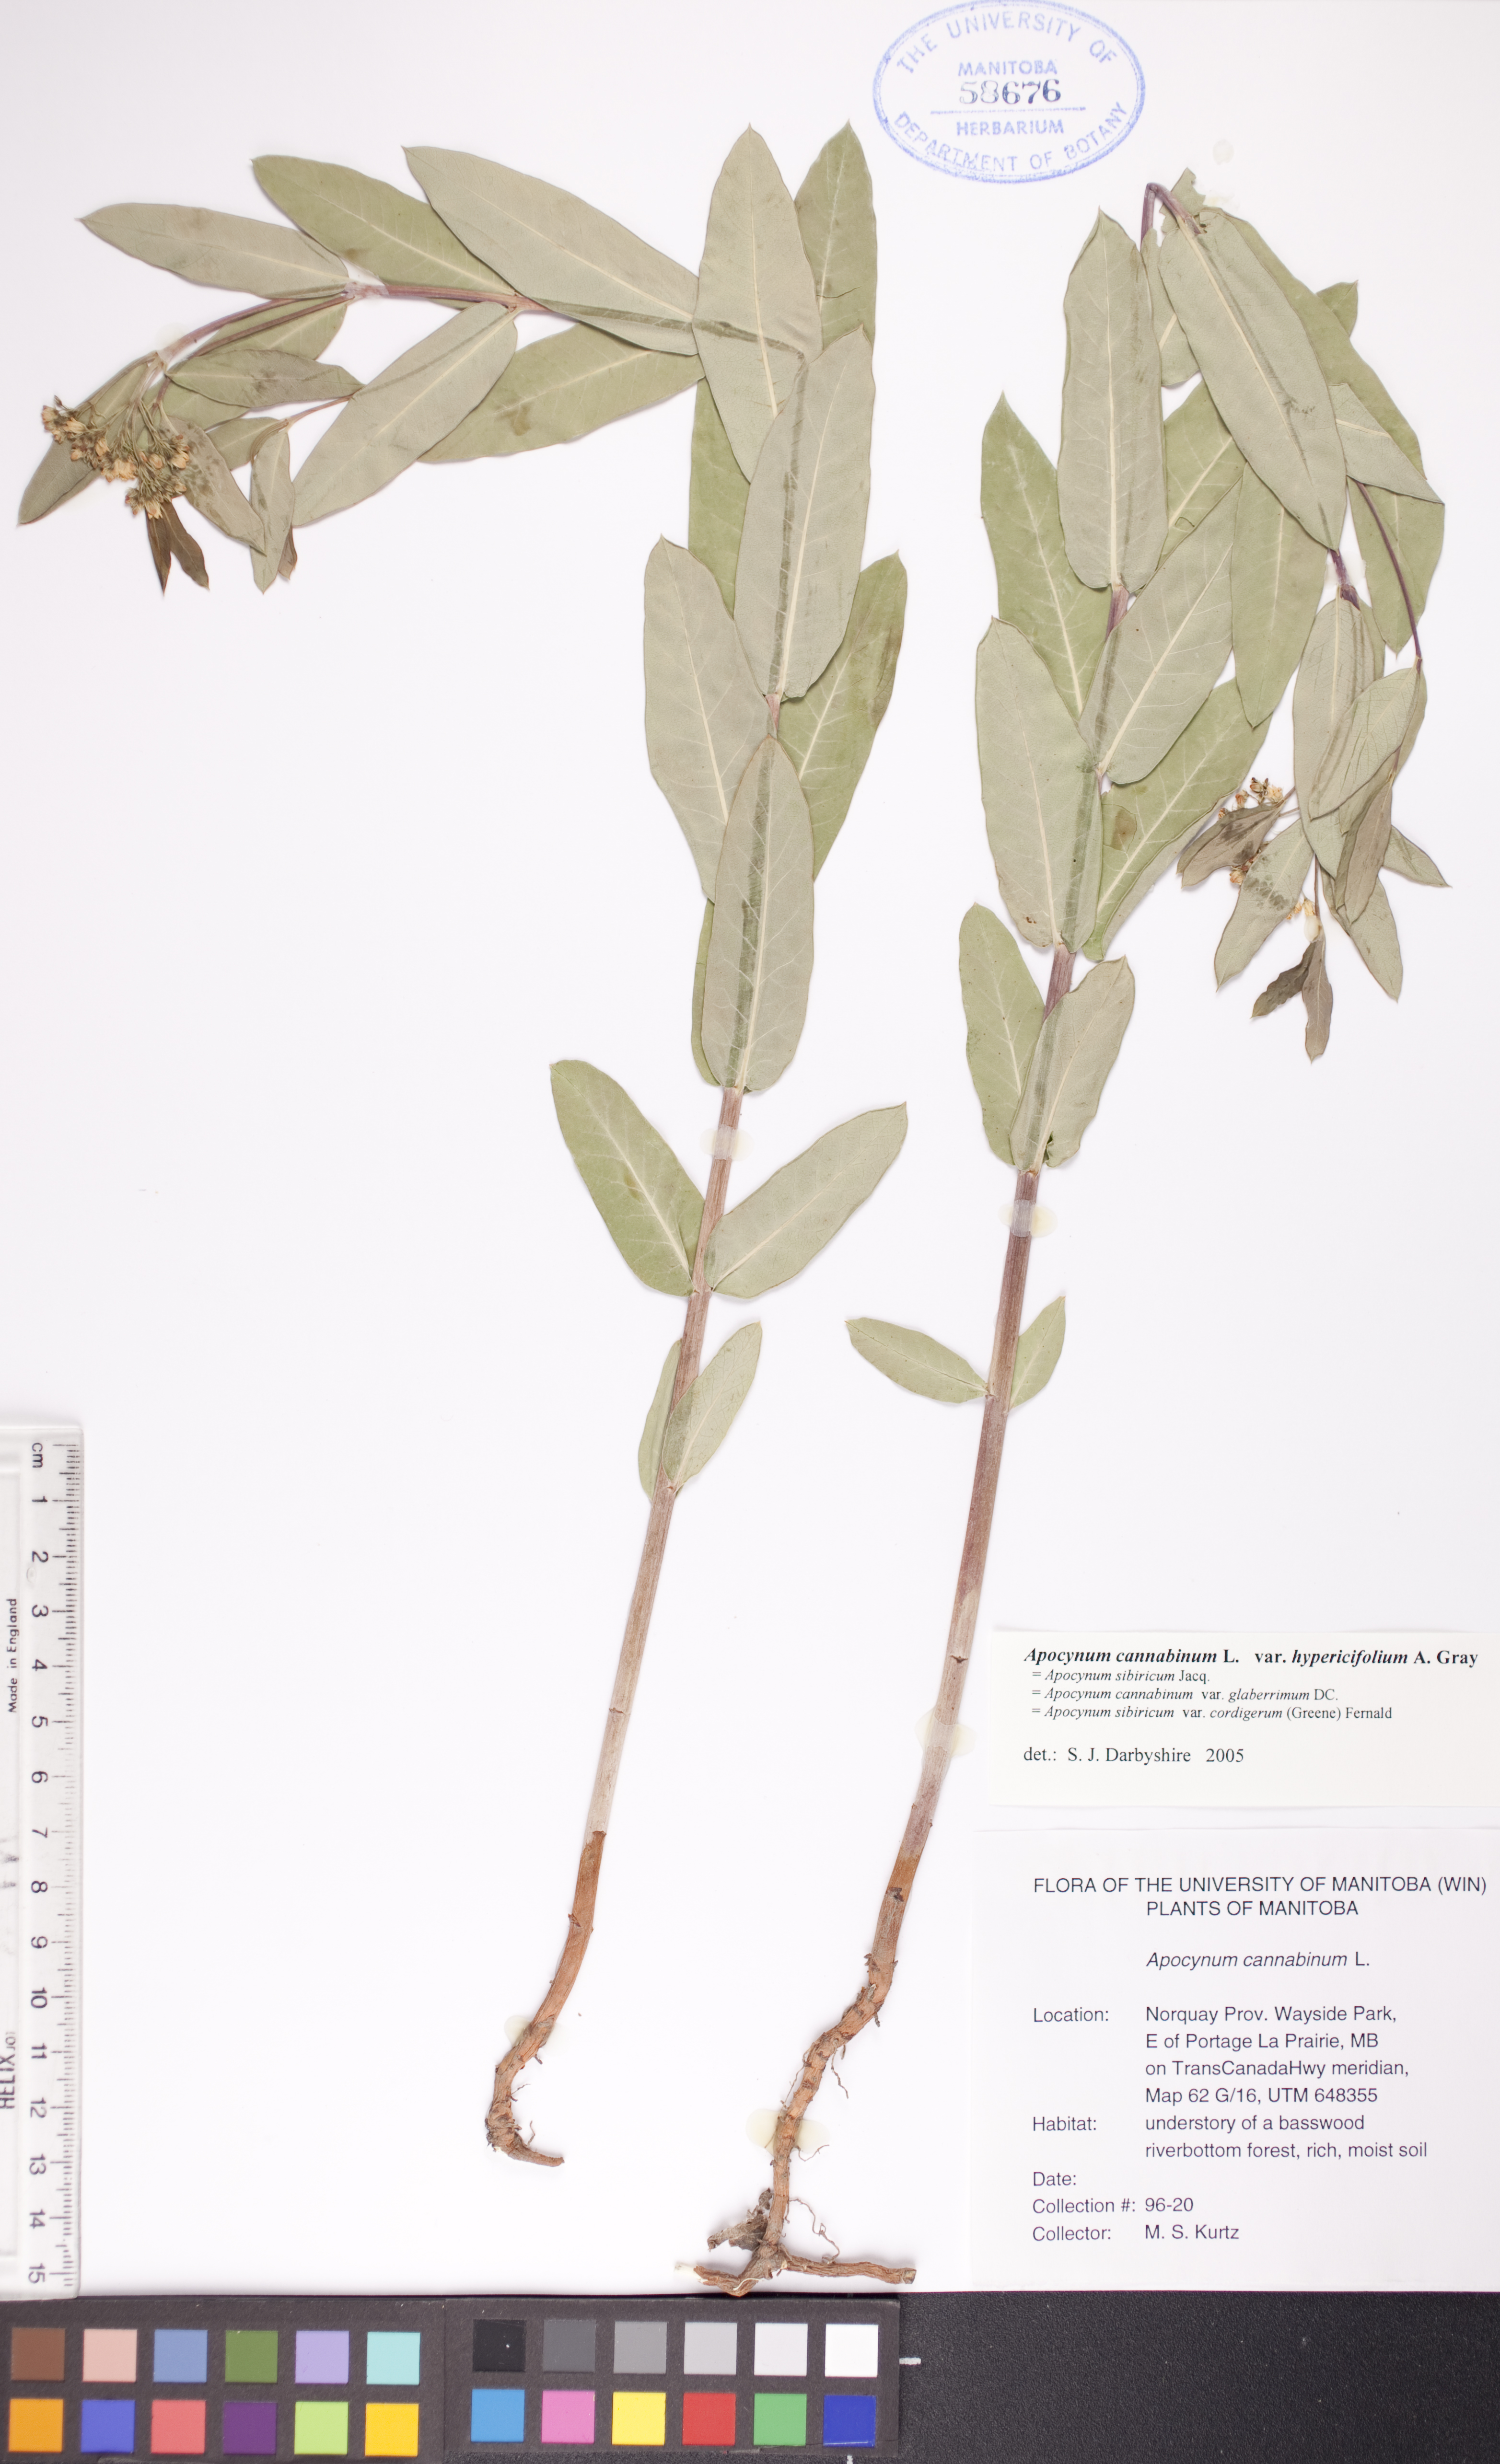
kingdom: Plantae
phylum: Tracheophyta
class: Magnoliopsida
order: Gentianales
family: Apocynaceae
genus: Apocynum
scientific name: Apocynum cannabinum
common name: Hemp dogbane
